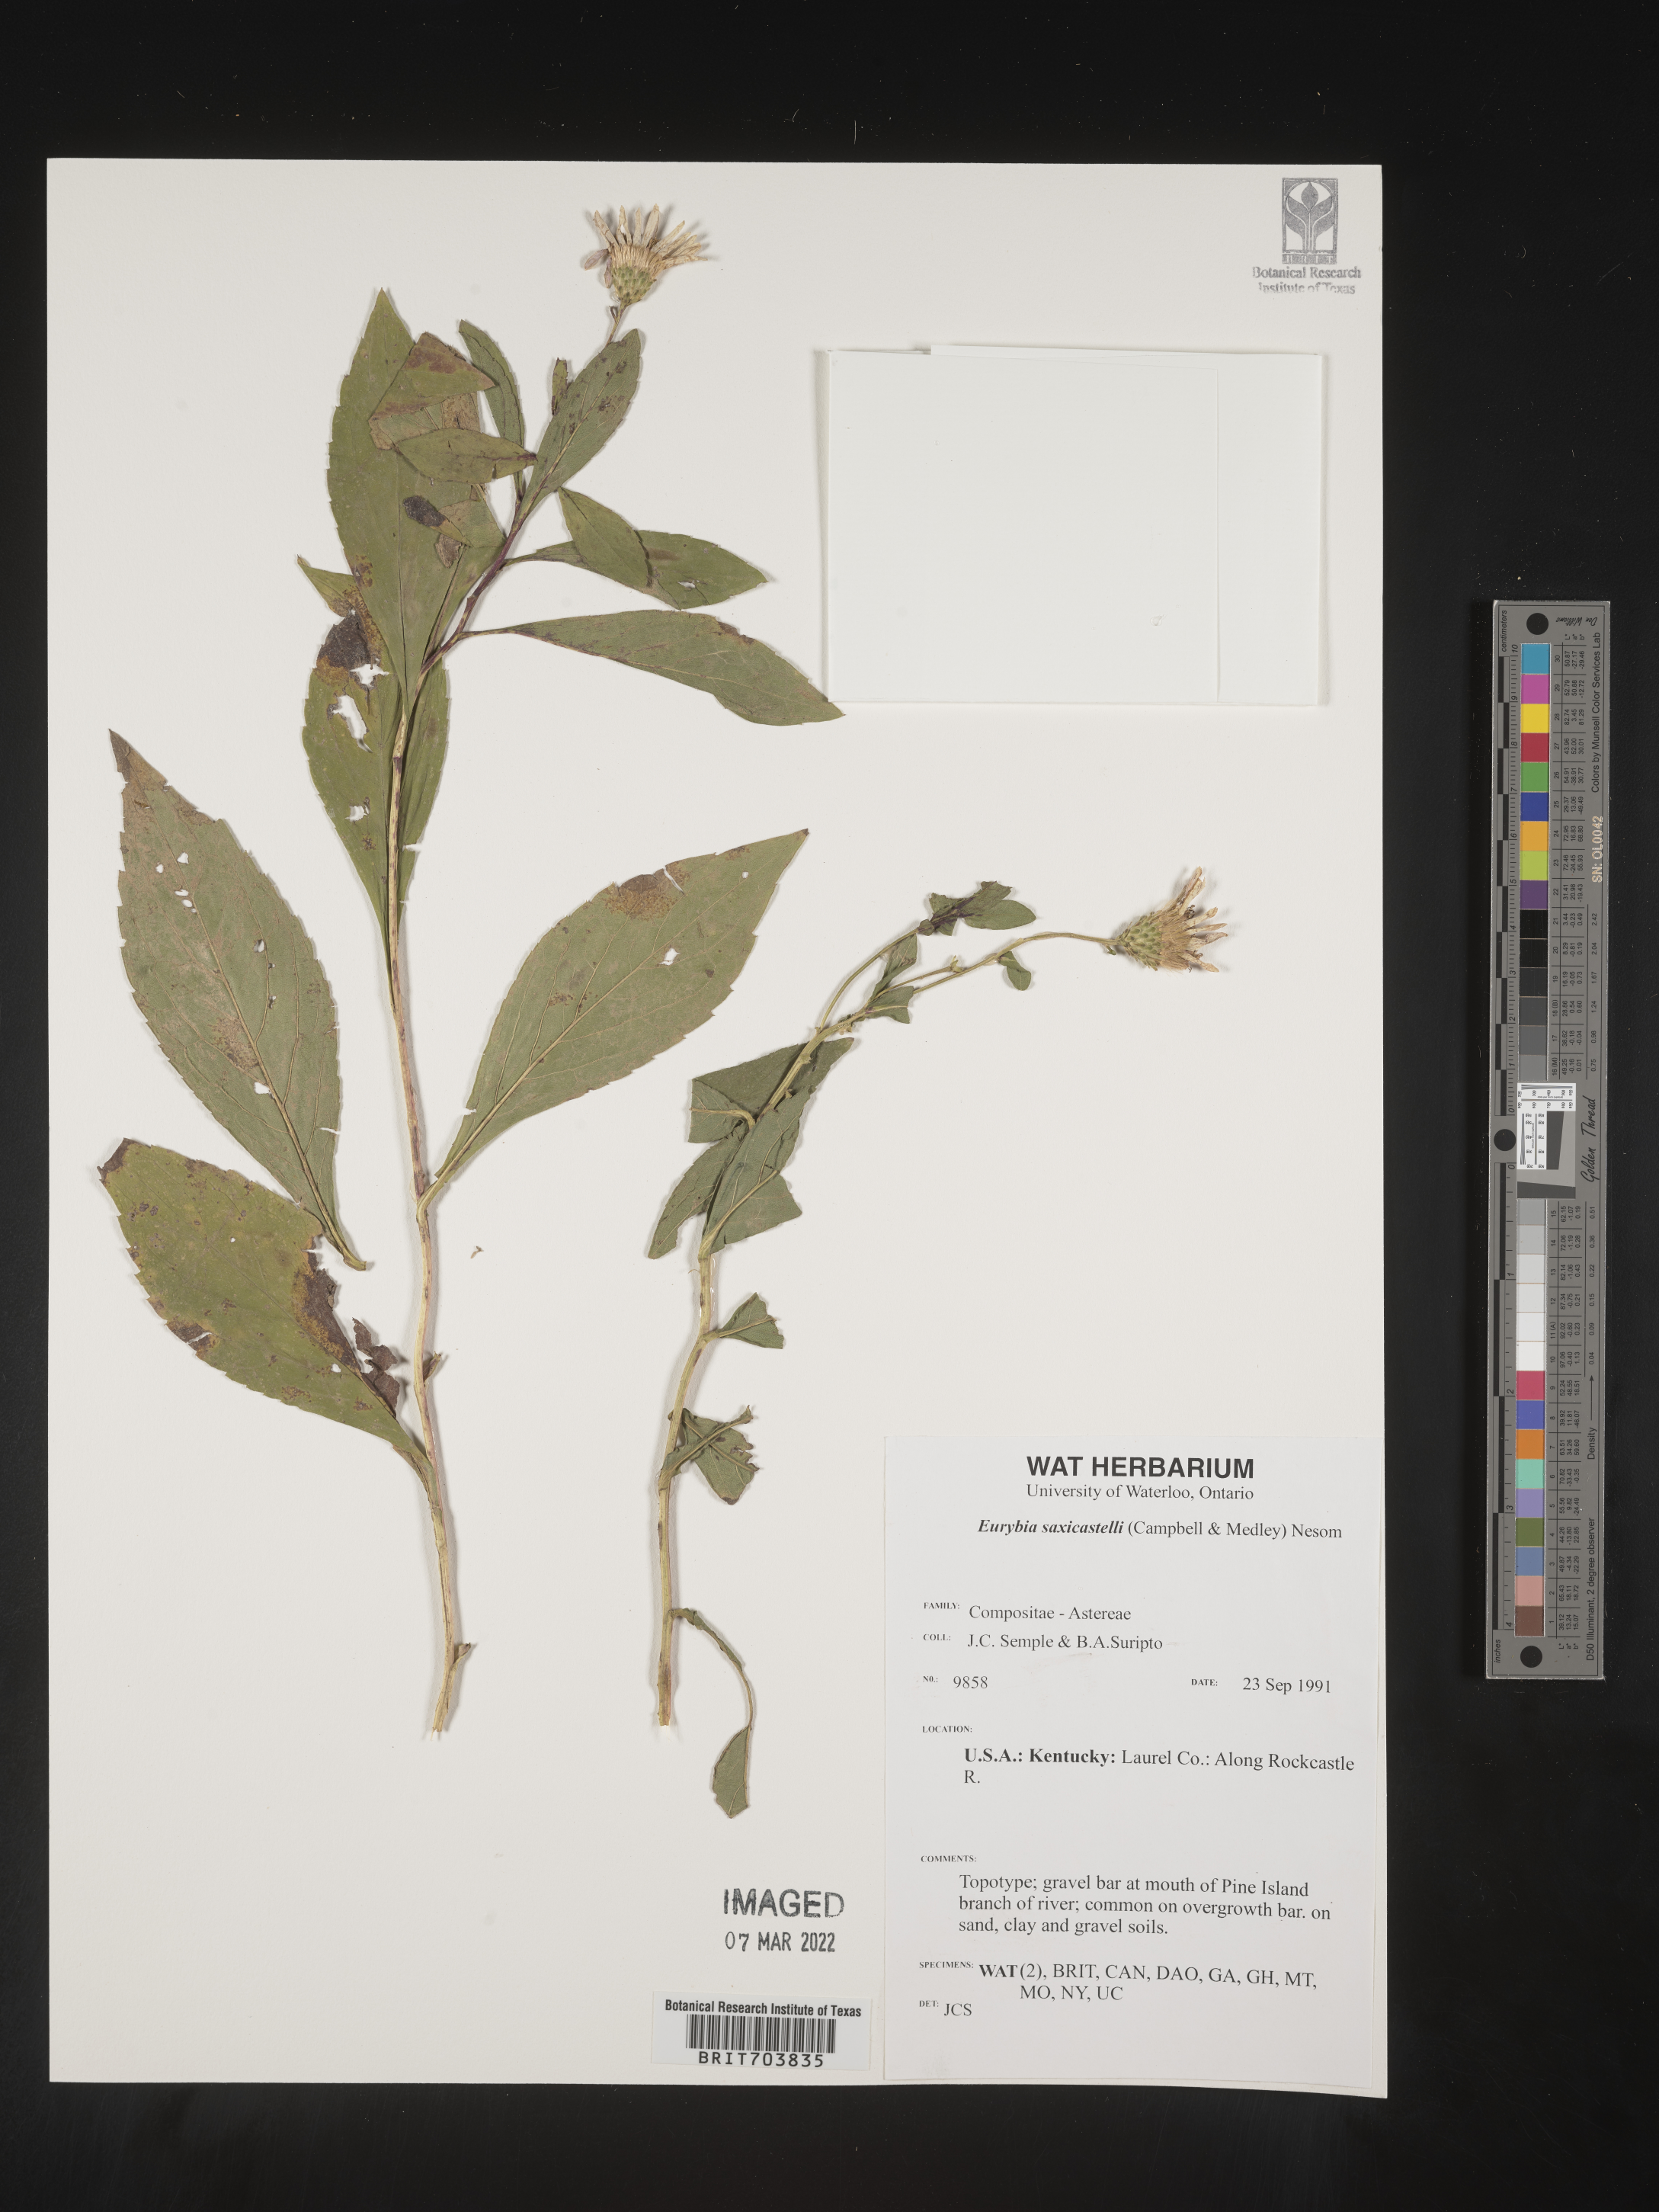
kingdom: Plantae
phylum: Tracheophyta
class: Magnoliopsida
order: Asterales
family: Asteraceae
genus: Eurybia
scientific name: Eurybia saxicastellii
